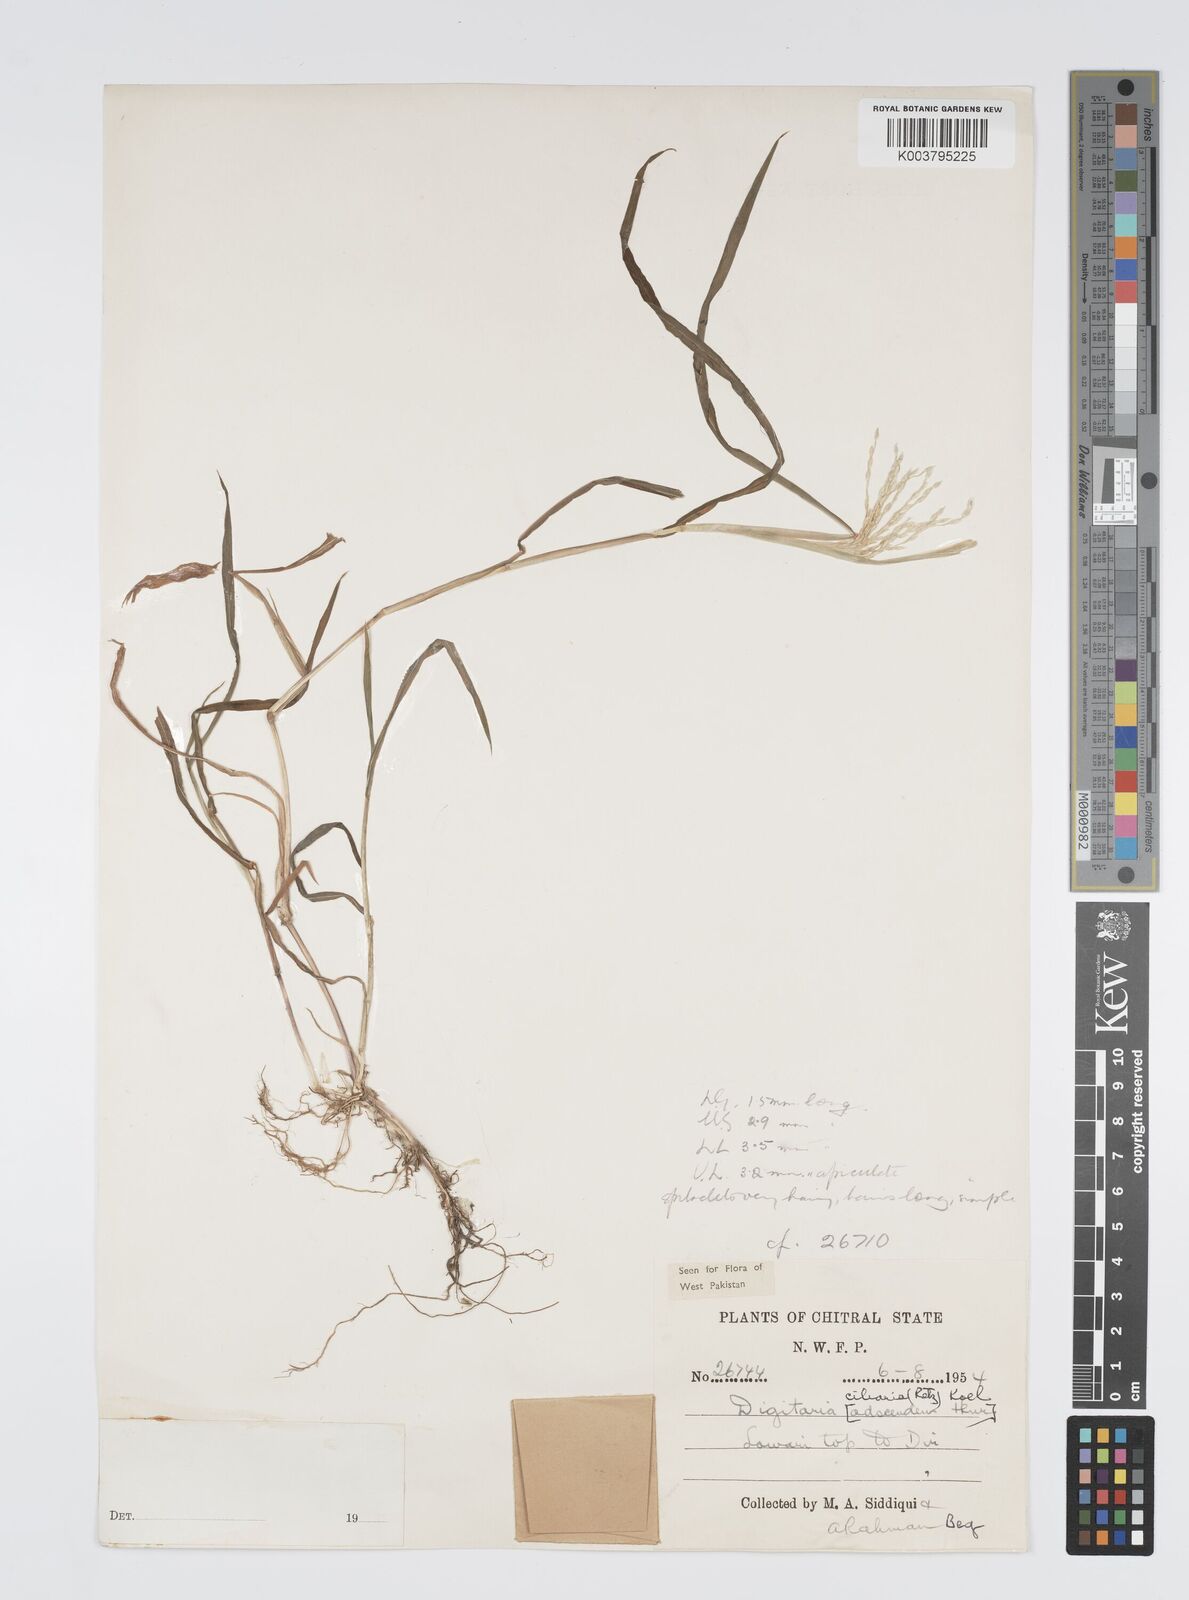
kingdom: Plantae
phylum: Tracheophyta
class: Liliopsida
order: Poales
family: Poaceae
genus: Digitaria
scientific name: Digitaria ciliaris
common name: Tropical finger-grass
